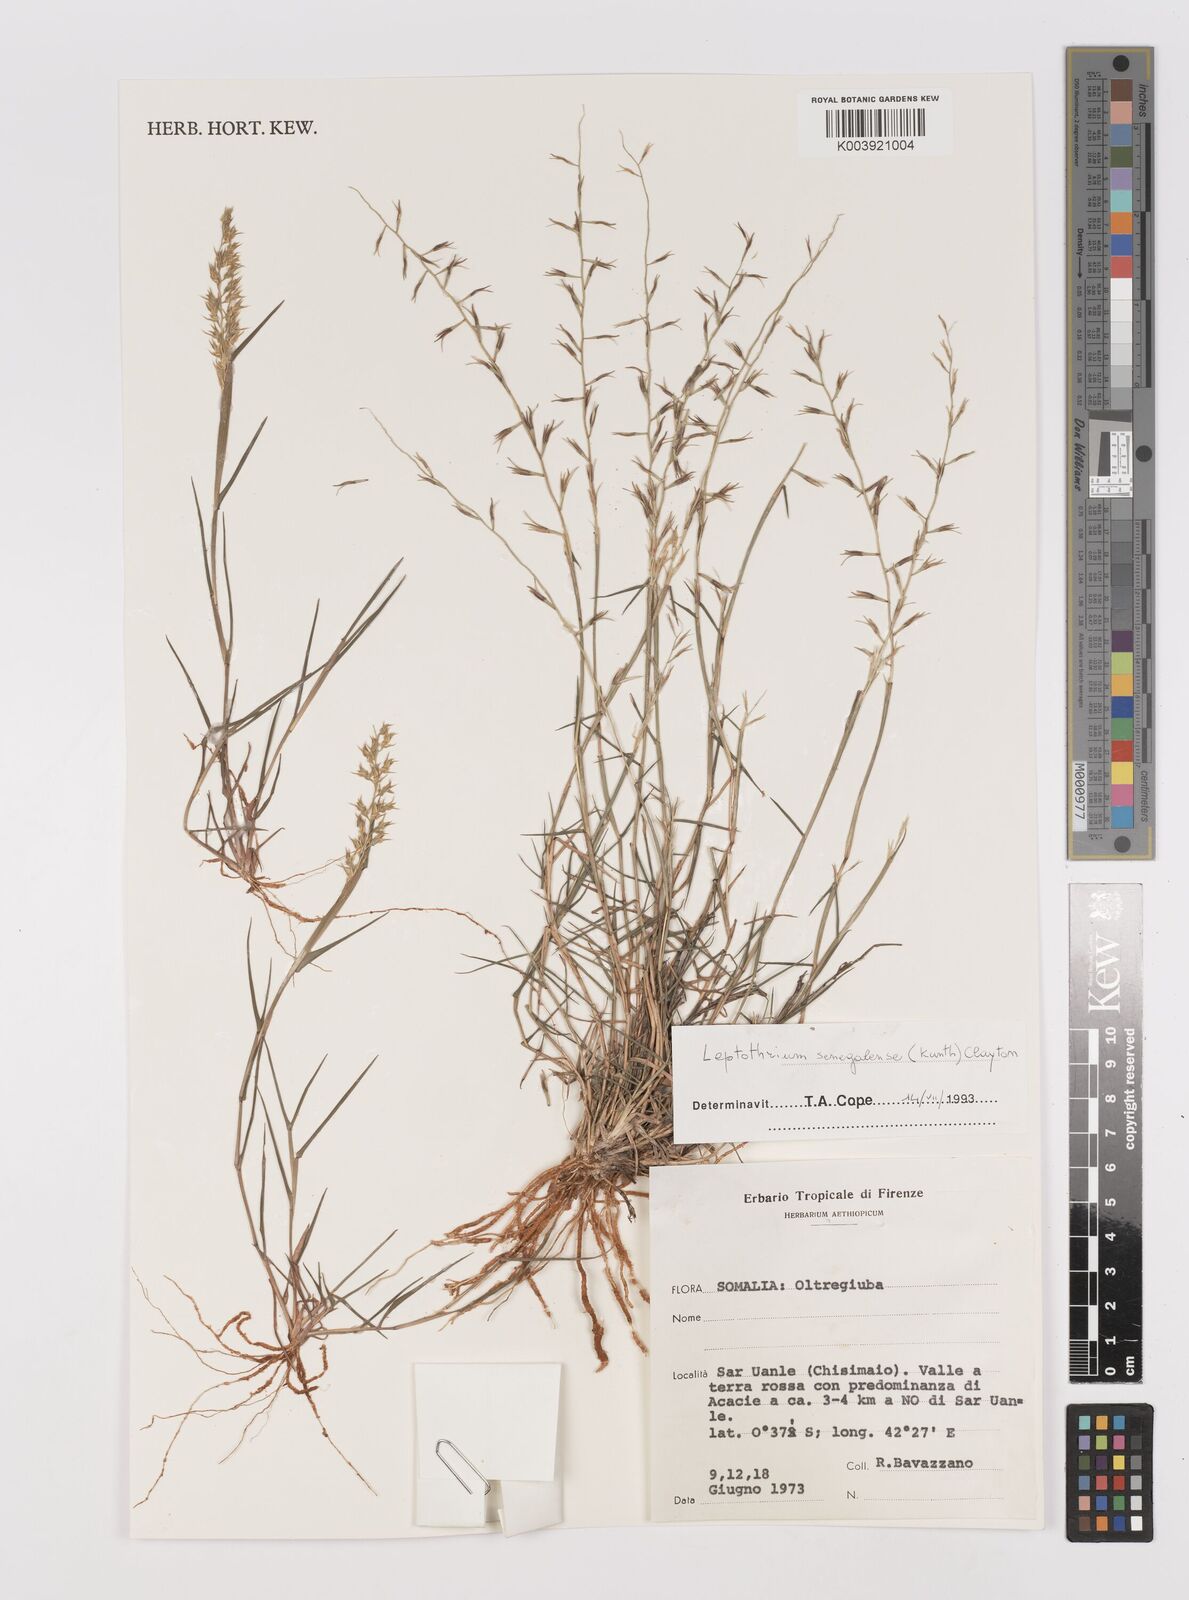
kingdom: Plantae
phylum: Tracheophyta
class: Liliopsida
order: Poales
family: Poaceae
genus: Leptothrium
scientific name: Leptothrium senegalense
